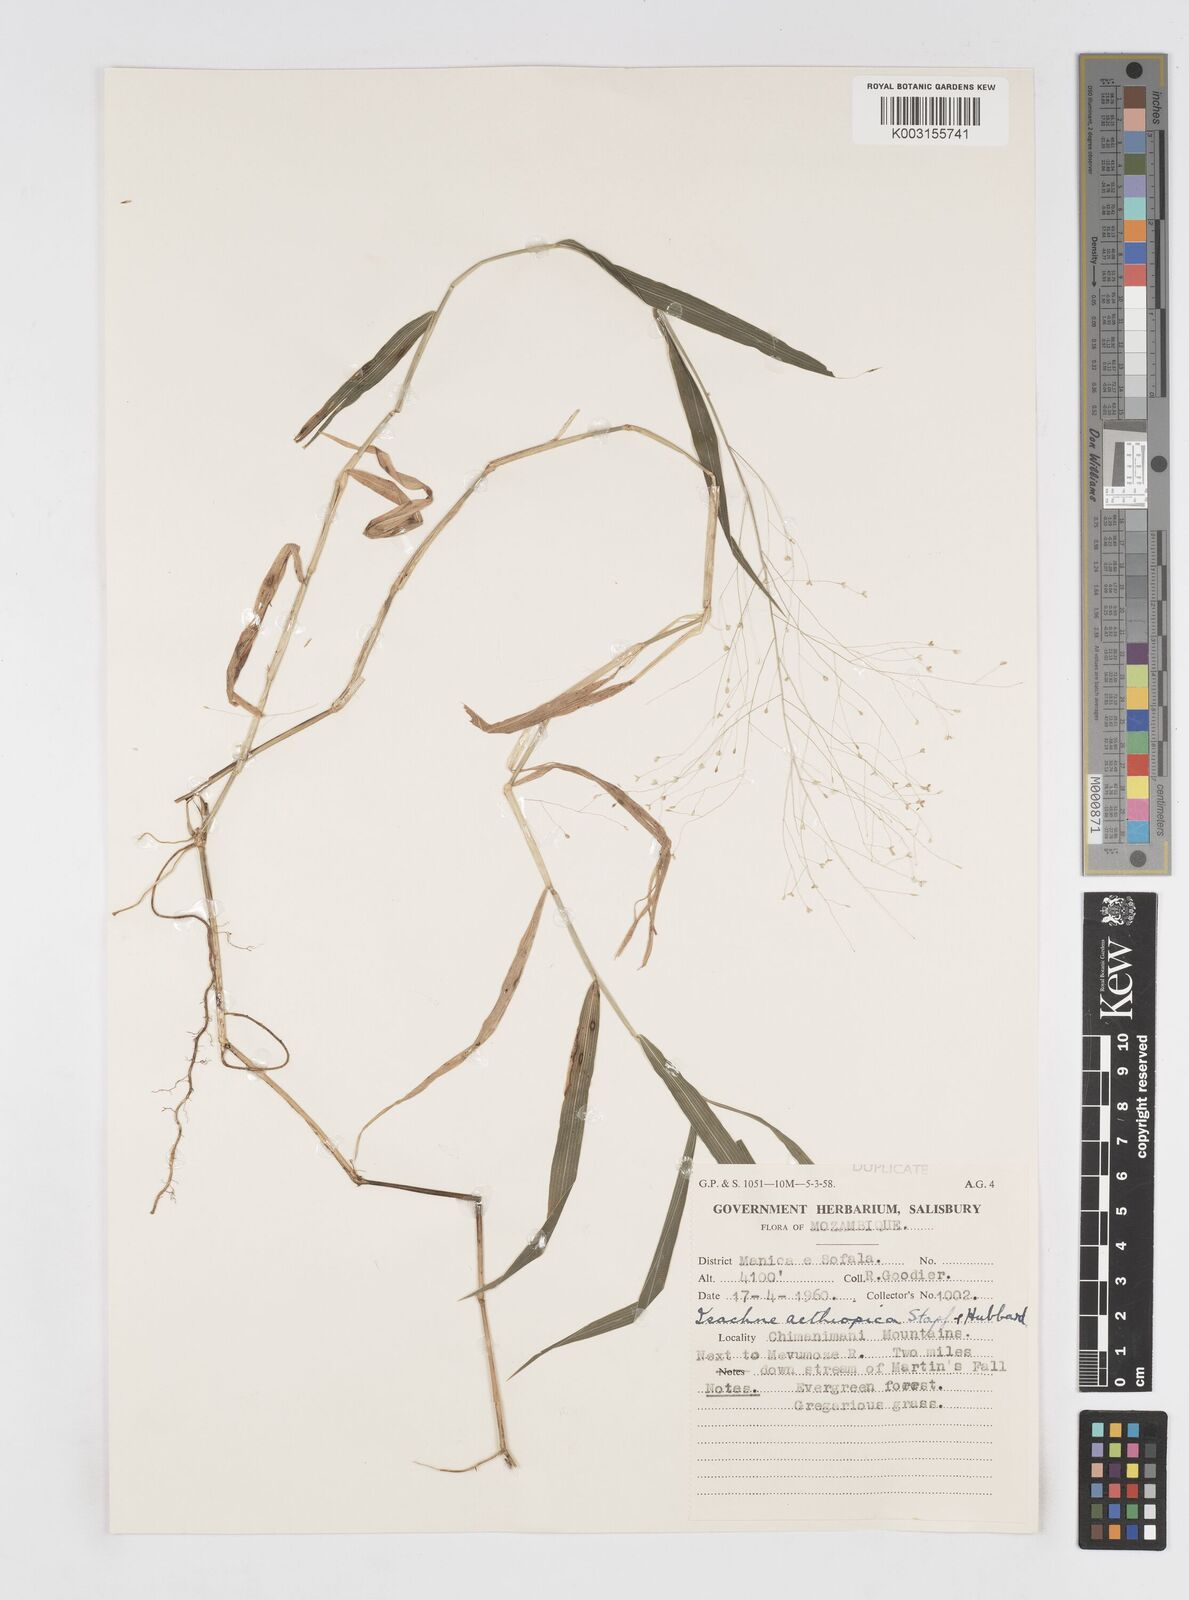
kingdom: Plantae
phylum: Tracheophyta
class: Liliopsida
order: Poales
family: Poaceae
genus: Isachne
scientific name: Isachne mauritiana
